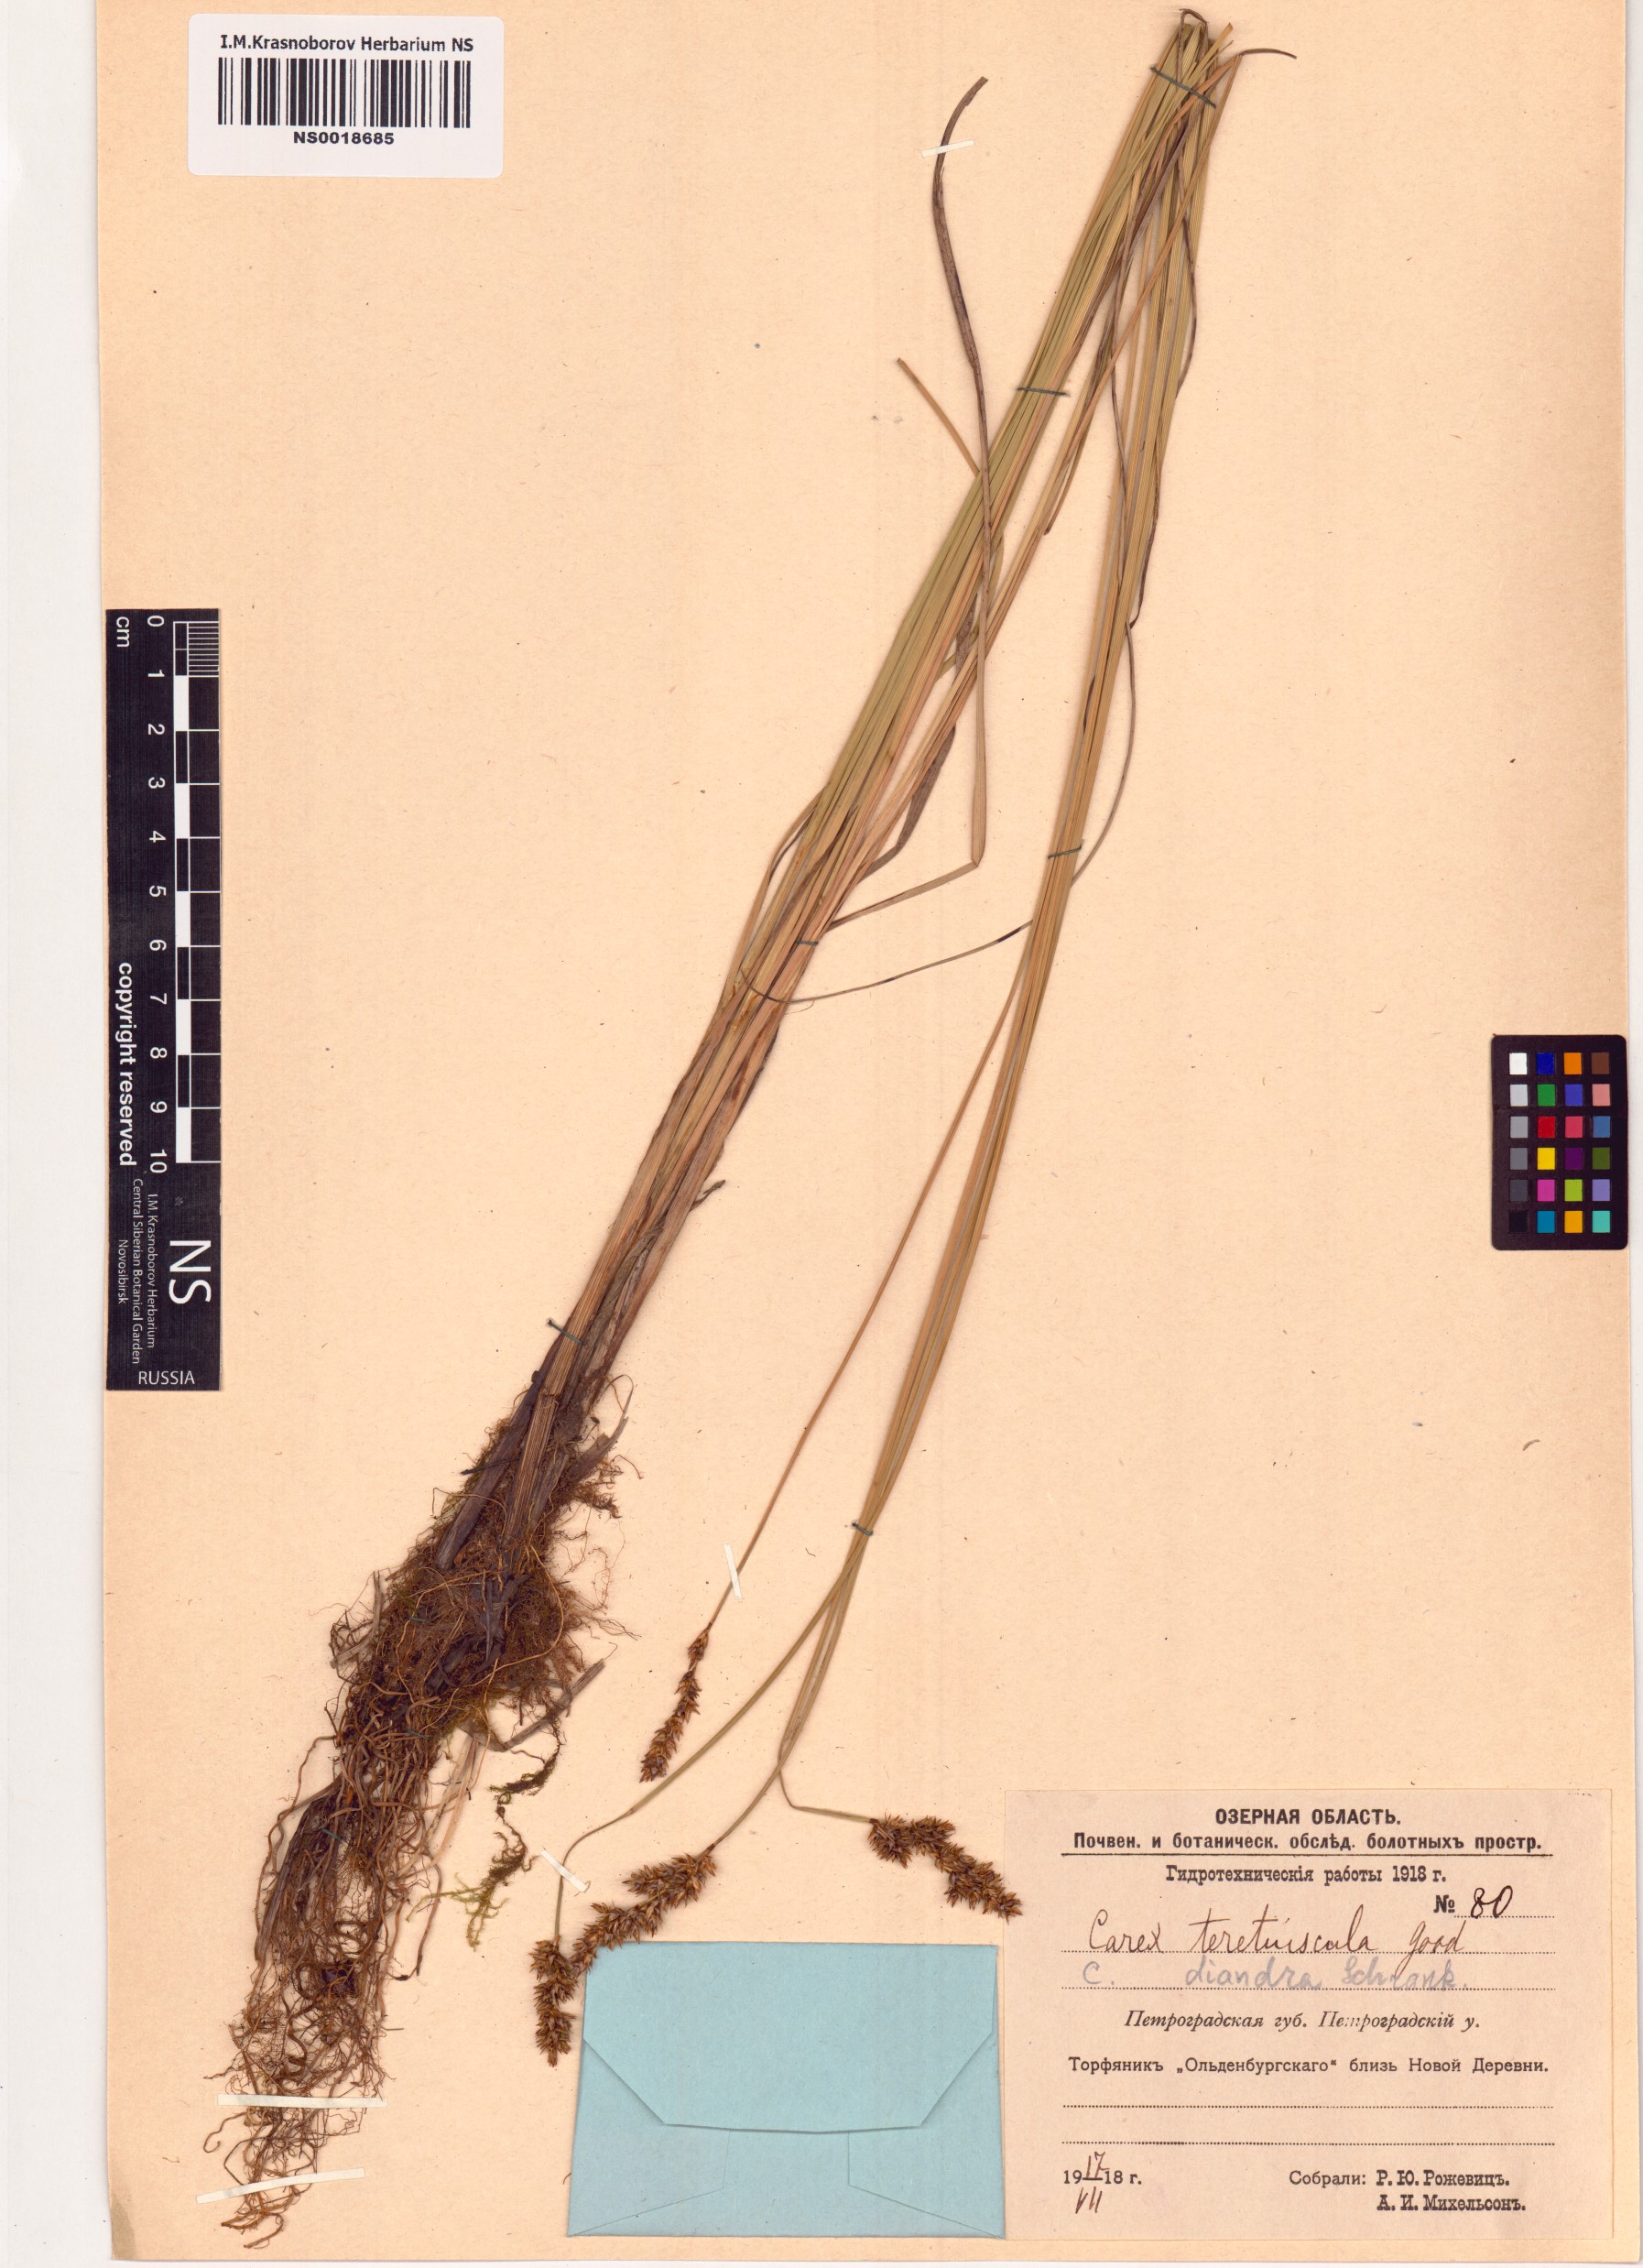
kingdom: Plantae
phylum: Tracheophyta
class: Liliopsida
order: Poales
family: Cyperaceae
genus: Carex
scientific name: Carex diandra
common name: Lesser tussock-sedge
